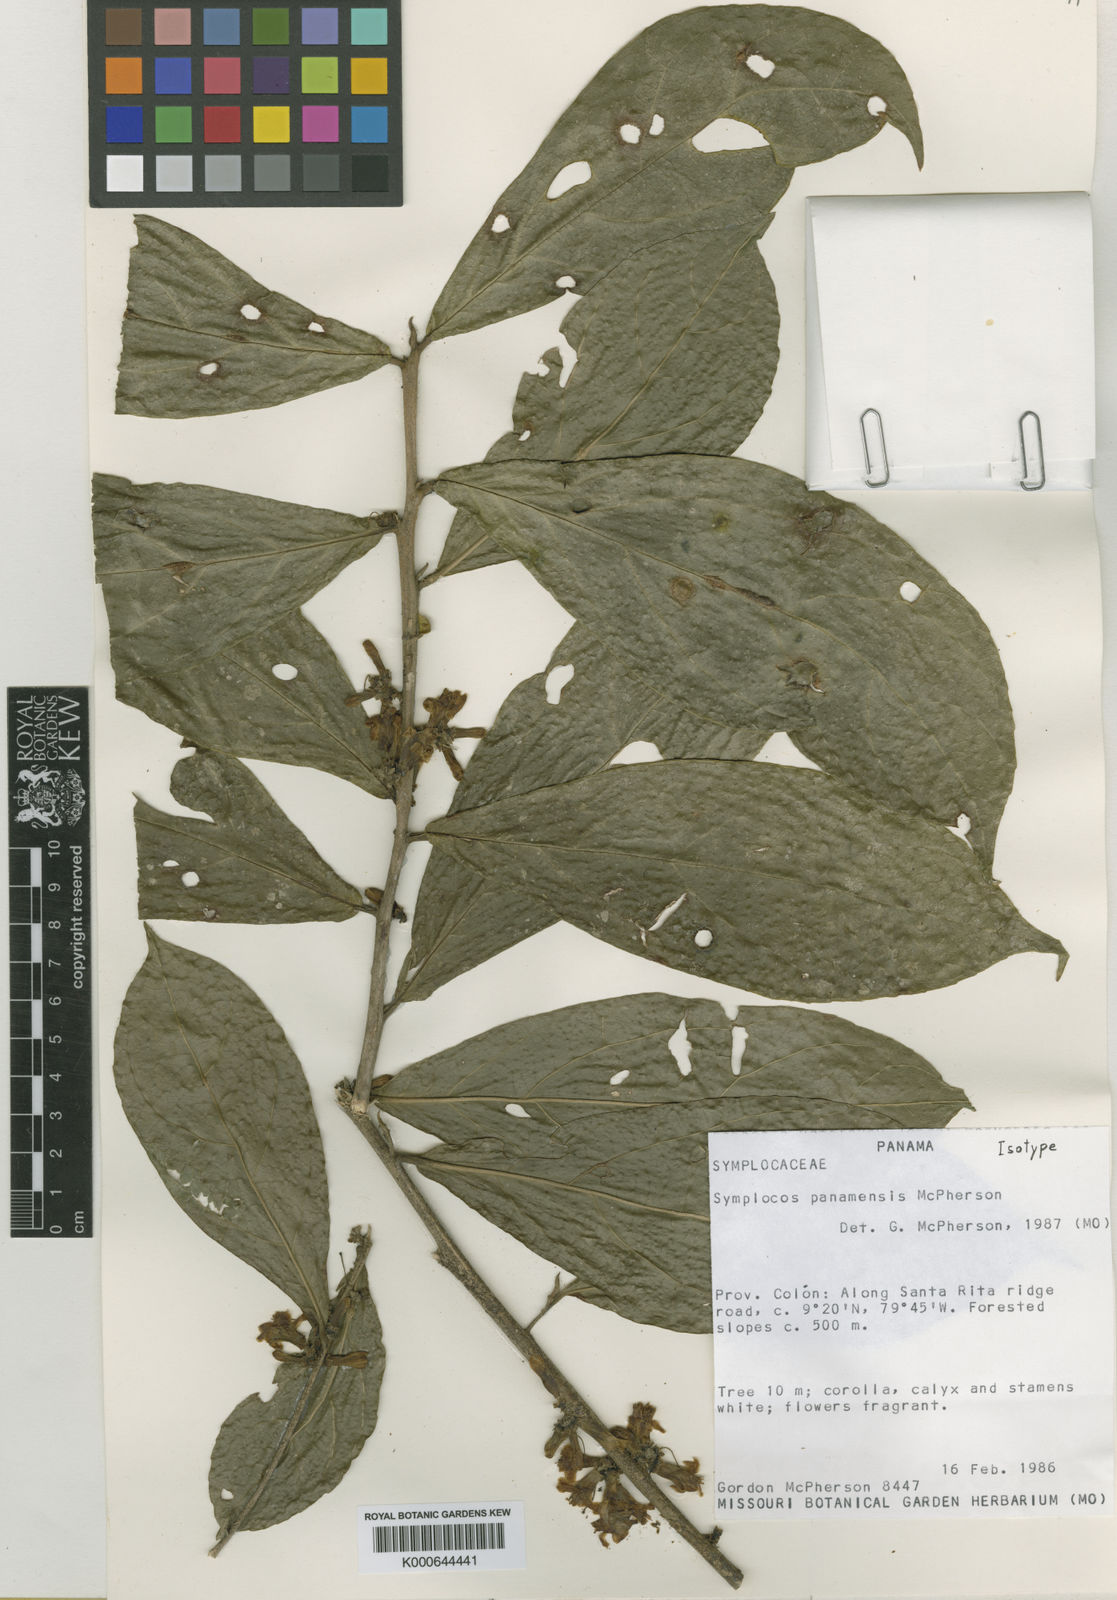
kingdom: Plantae
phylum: Tracheophyta
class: Magnoliopsida
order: Ericales
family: Symplocaceae
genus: Symplocos
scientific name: Symplocos panamensis
